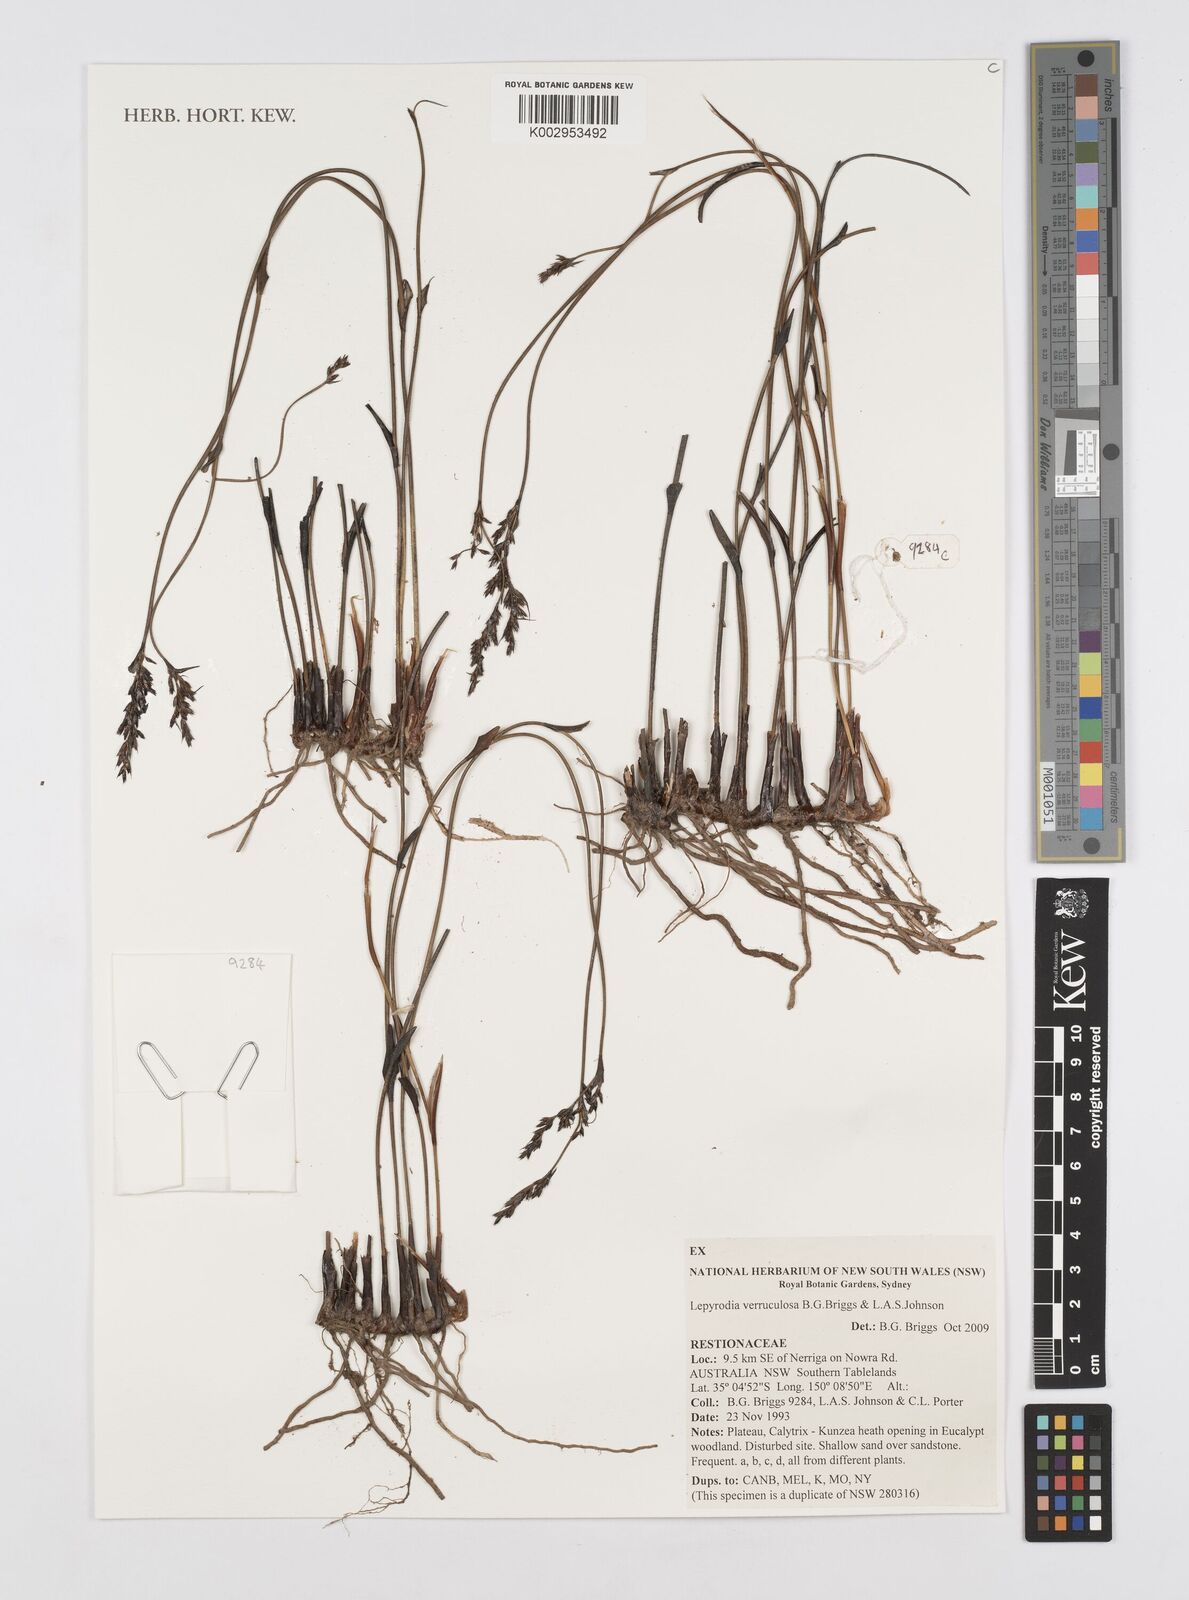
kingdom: Plantae
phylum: Tracheophyta
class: Liliopsida
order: Poales
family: Restionaceae
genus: Lepyrodia
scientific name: Lepyrodia verruculosa
